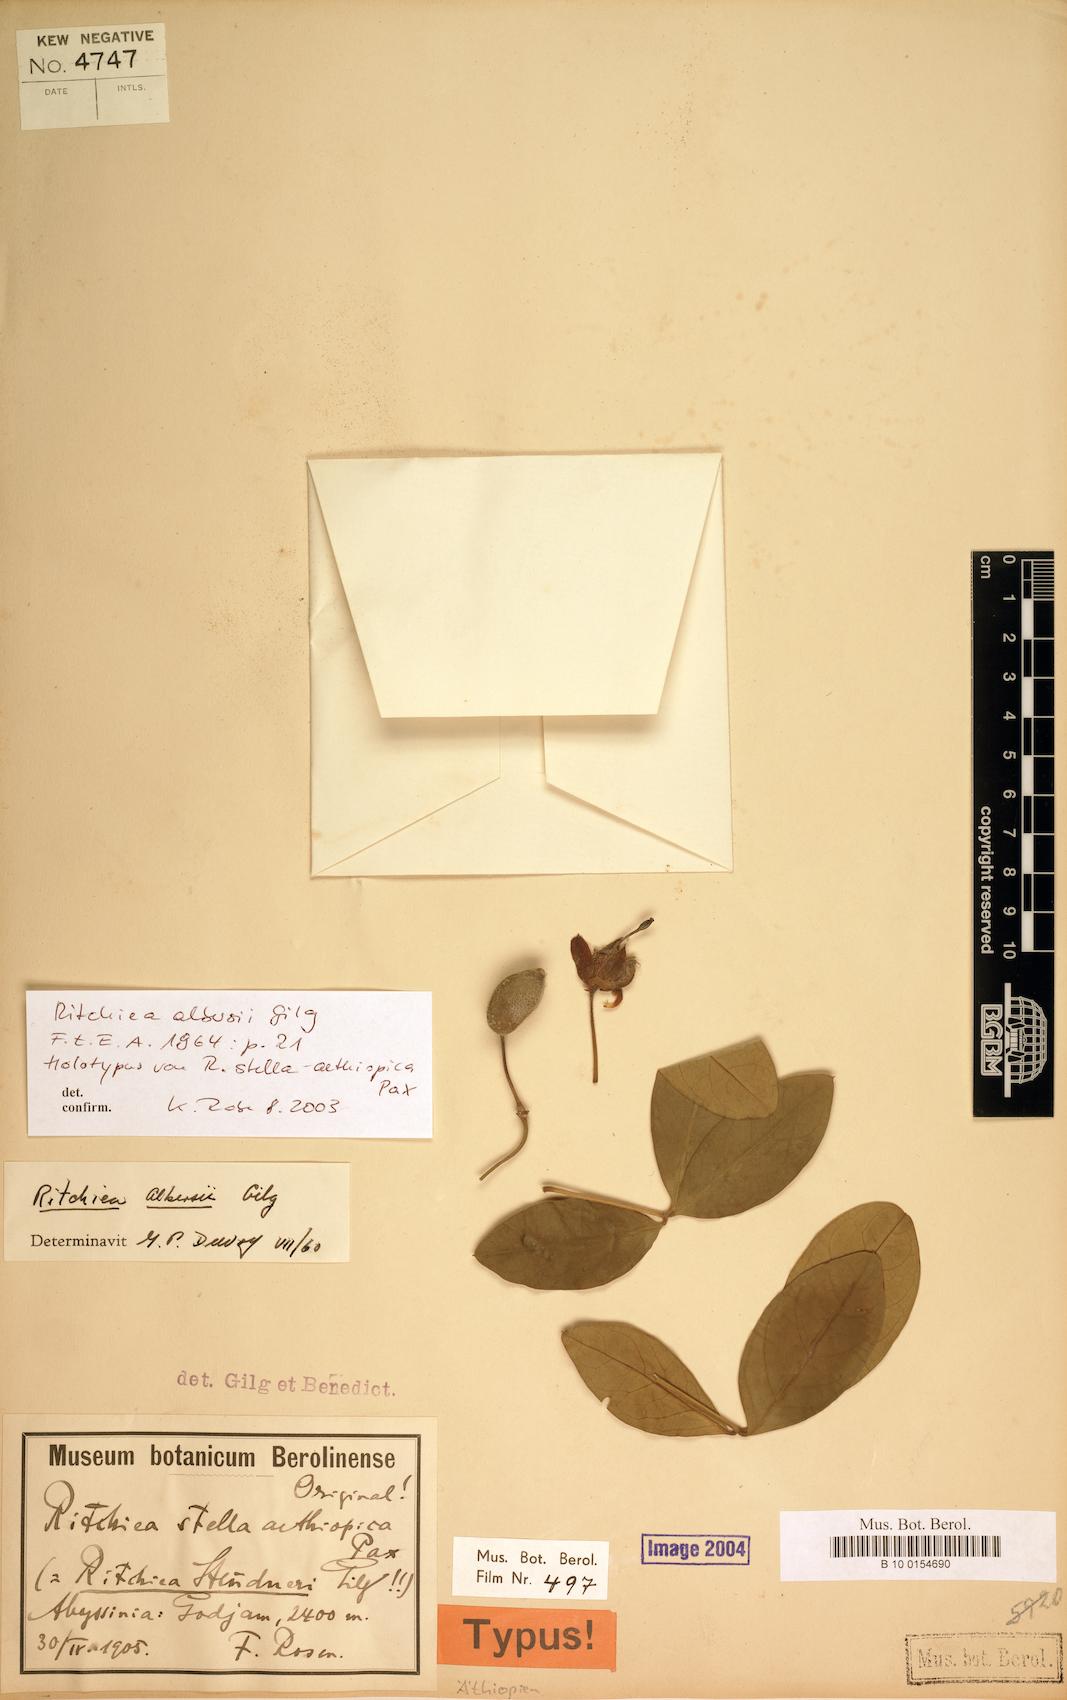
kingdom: Plantae
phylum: Tracheophyta
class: Magnoliopsida
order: Brassicales
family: Capparaceae
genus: Ritchiea
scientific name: Ritchiea albersii
